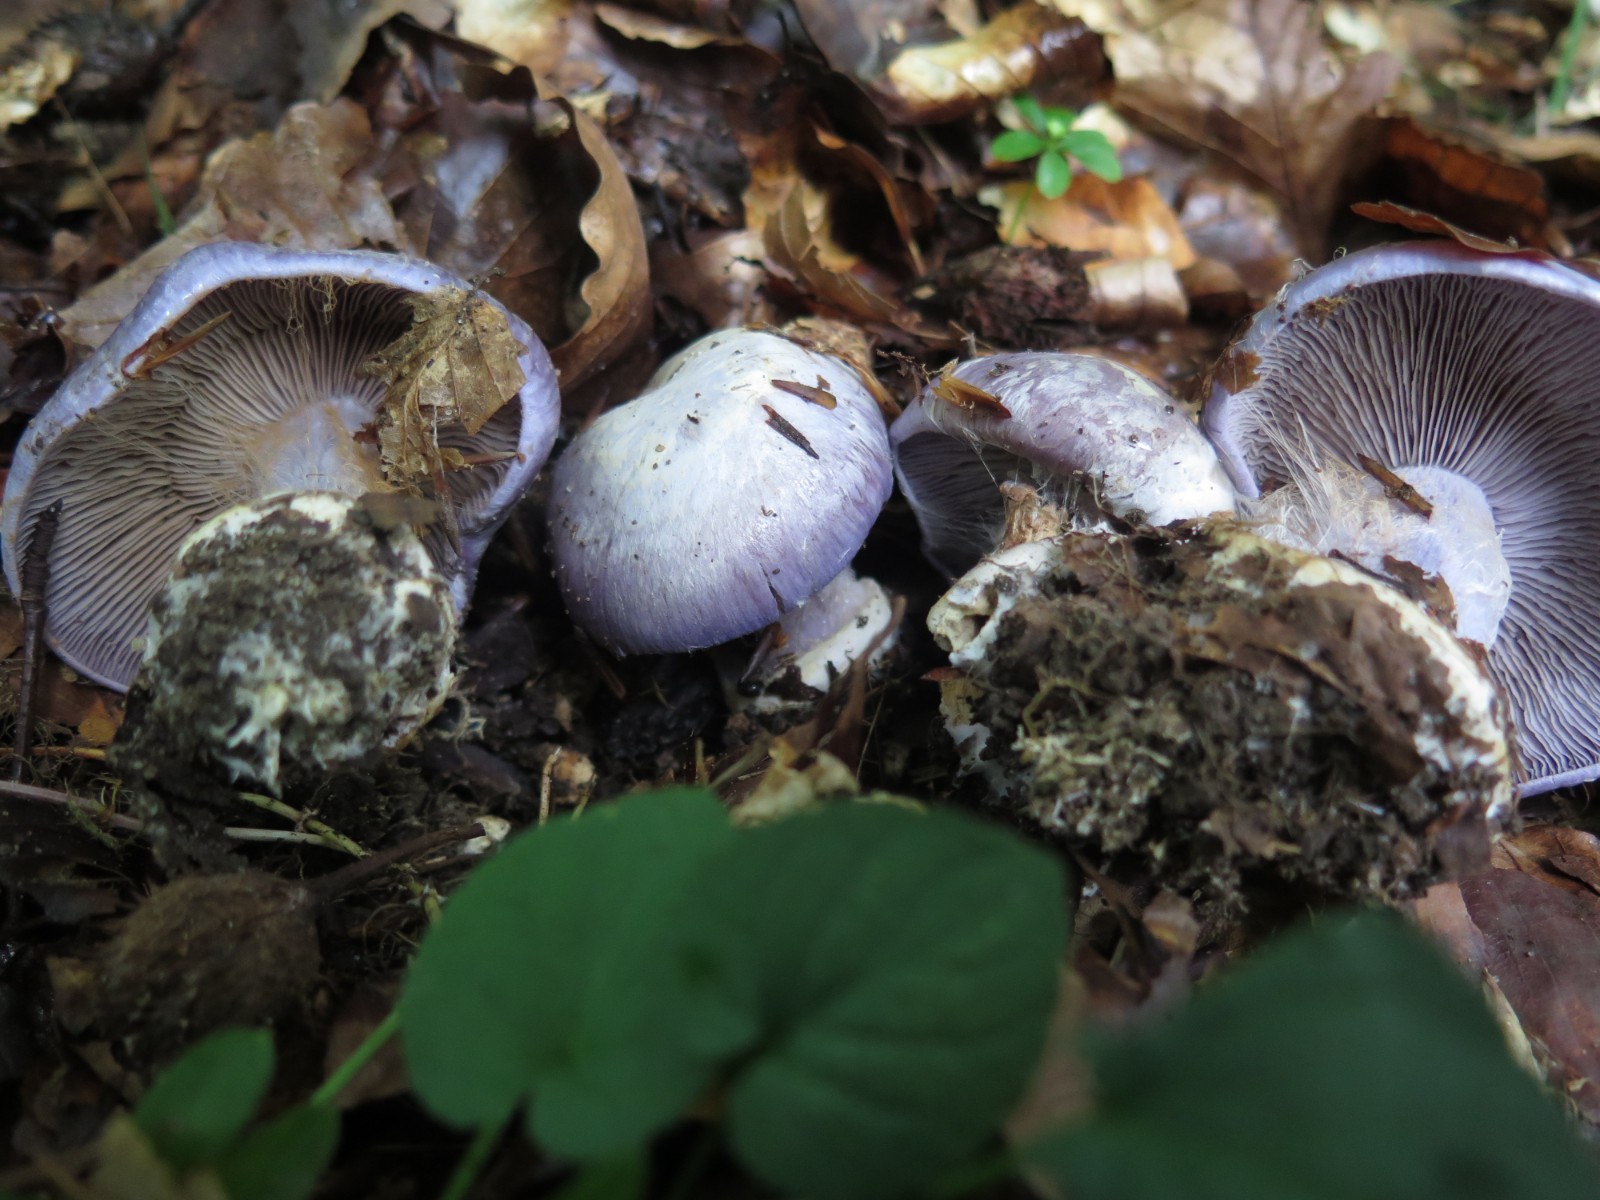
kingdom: Fungi
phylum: Basidiomycota
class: Agaricomycetes
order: Agaricales
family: Cortinariaceae
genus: Cortinarius
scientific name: Cortinarius caerulescens
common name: blåkødet slørhat
